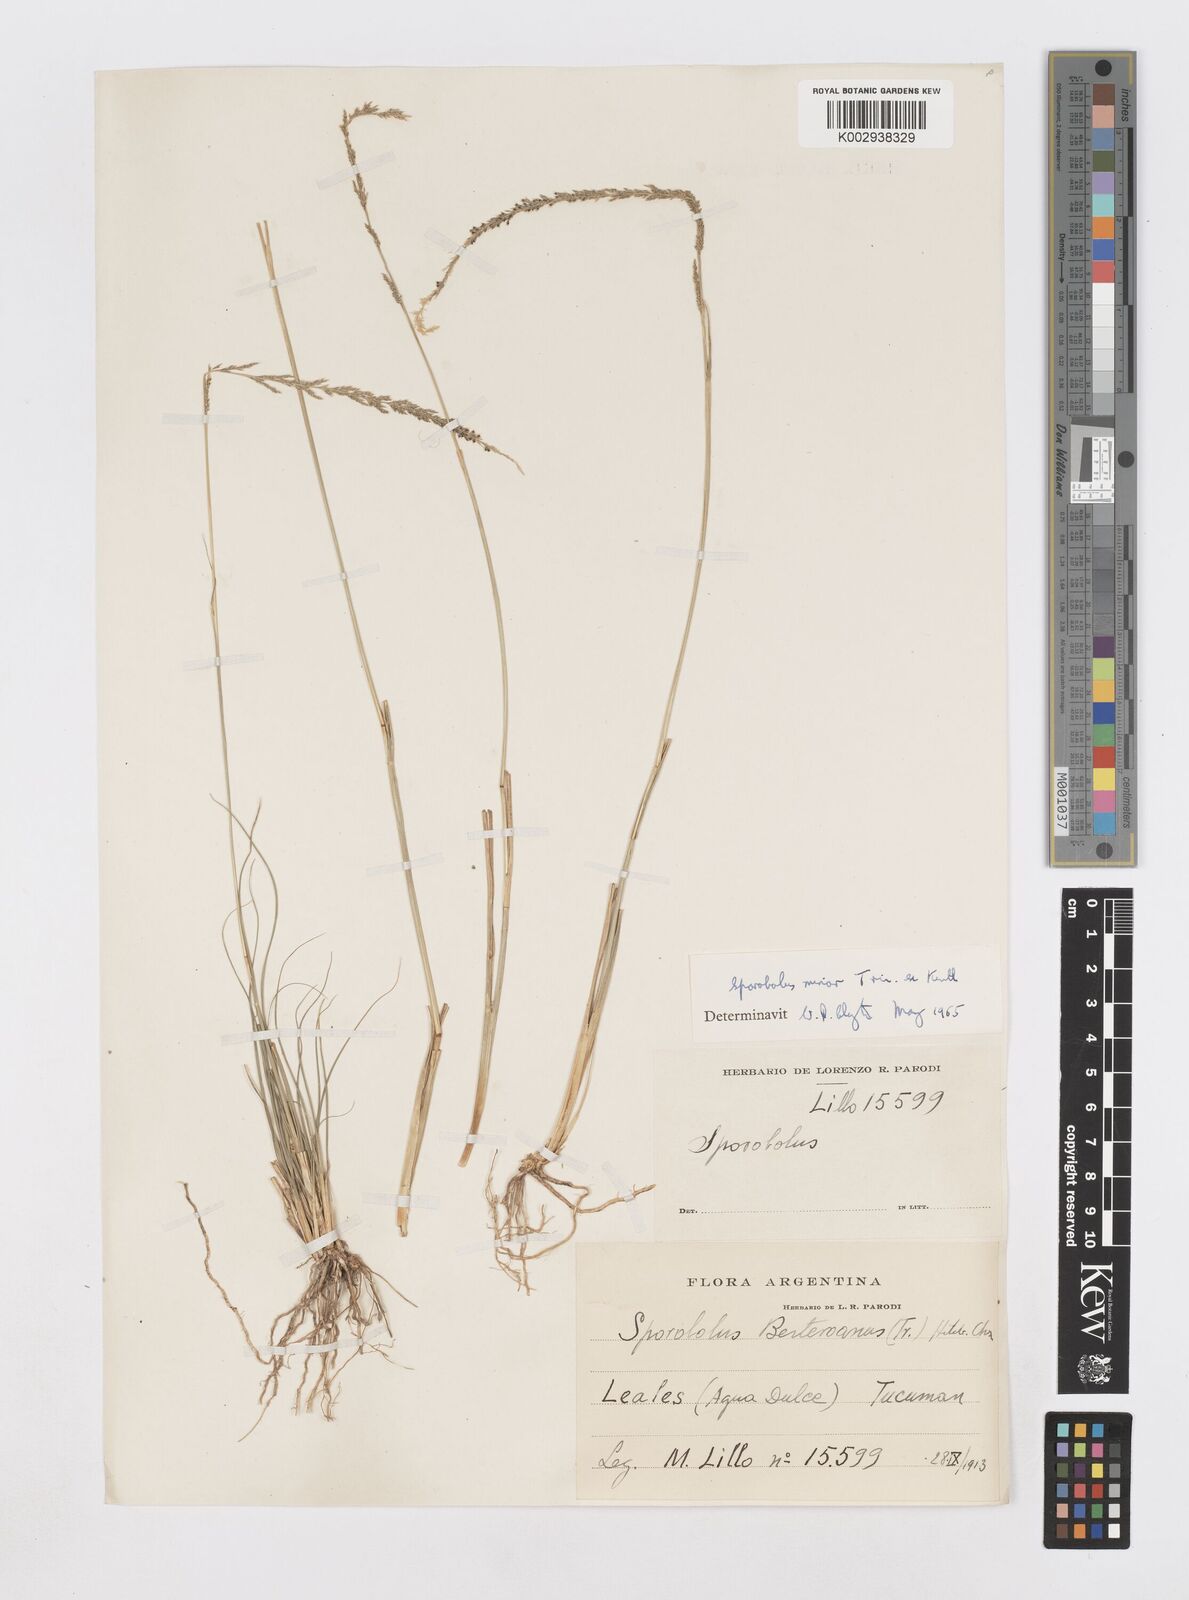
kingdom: Plantae
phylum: Tracheophyta
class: Liliopsida
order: Poales
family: Poaceae
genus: Sporobolus
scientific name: Sporobolus minor
